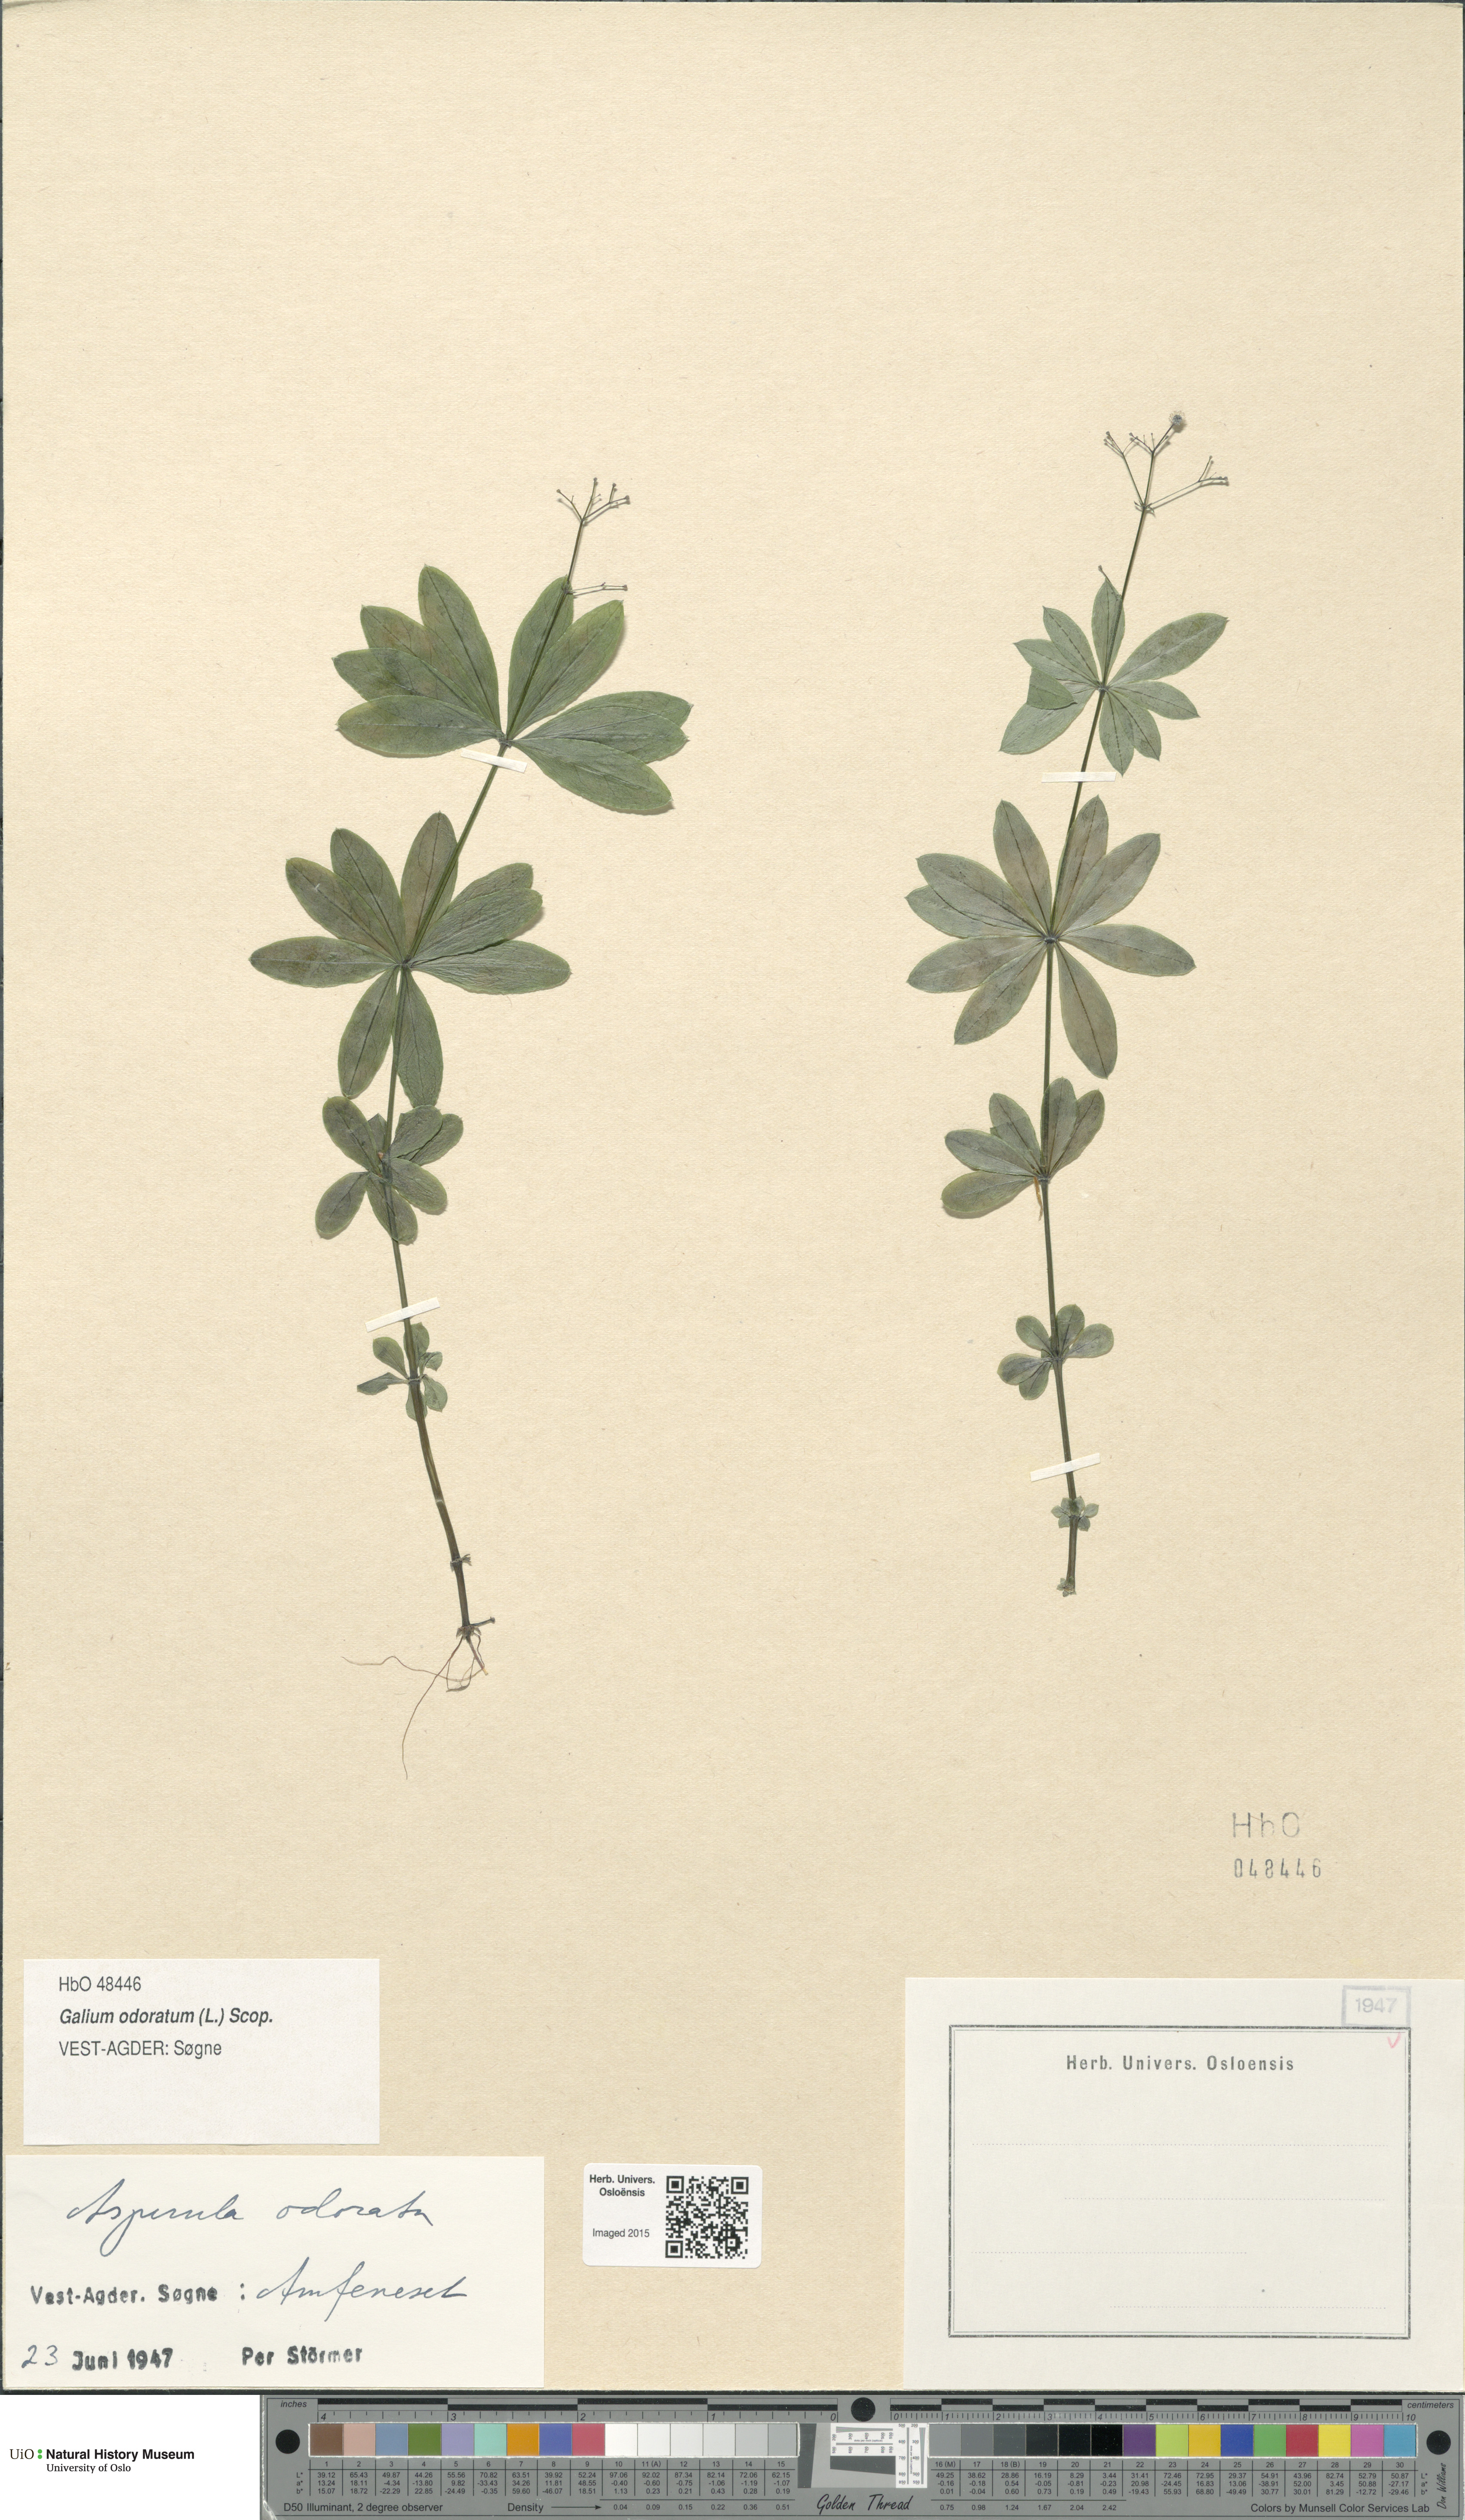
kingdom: Plantae
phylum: Tracheophyta
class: Magnoliopsida
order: Gentianales
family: Rubiaceae
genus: Galium
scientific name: Galium odoratum
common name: Sweet woodruff
